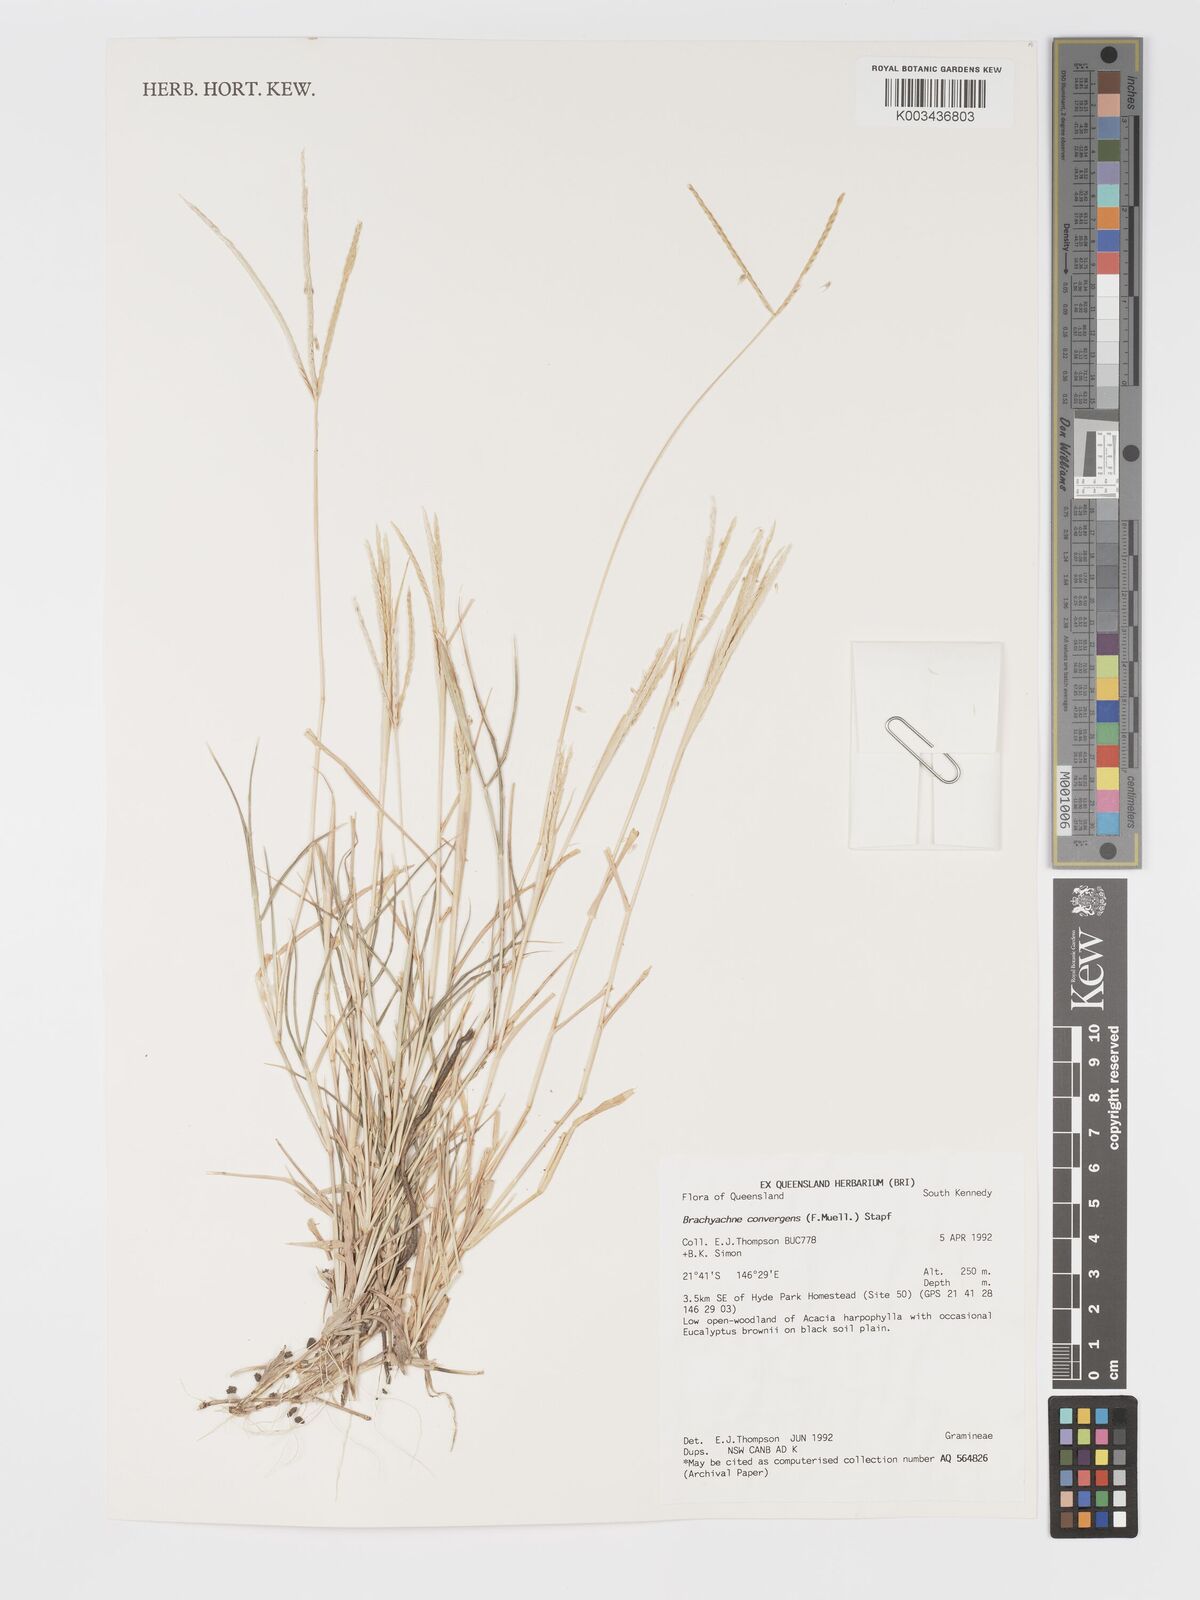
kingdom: Plantae
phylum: Tracheophyta
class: Liliopsida
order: Poales
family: Poaceae
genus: Cynodon
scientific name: Cynodon convergens
